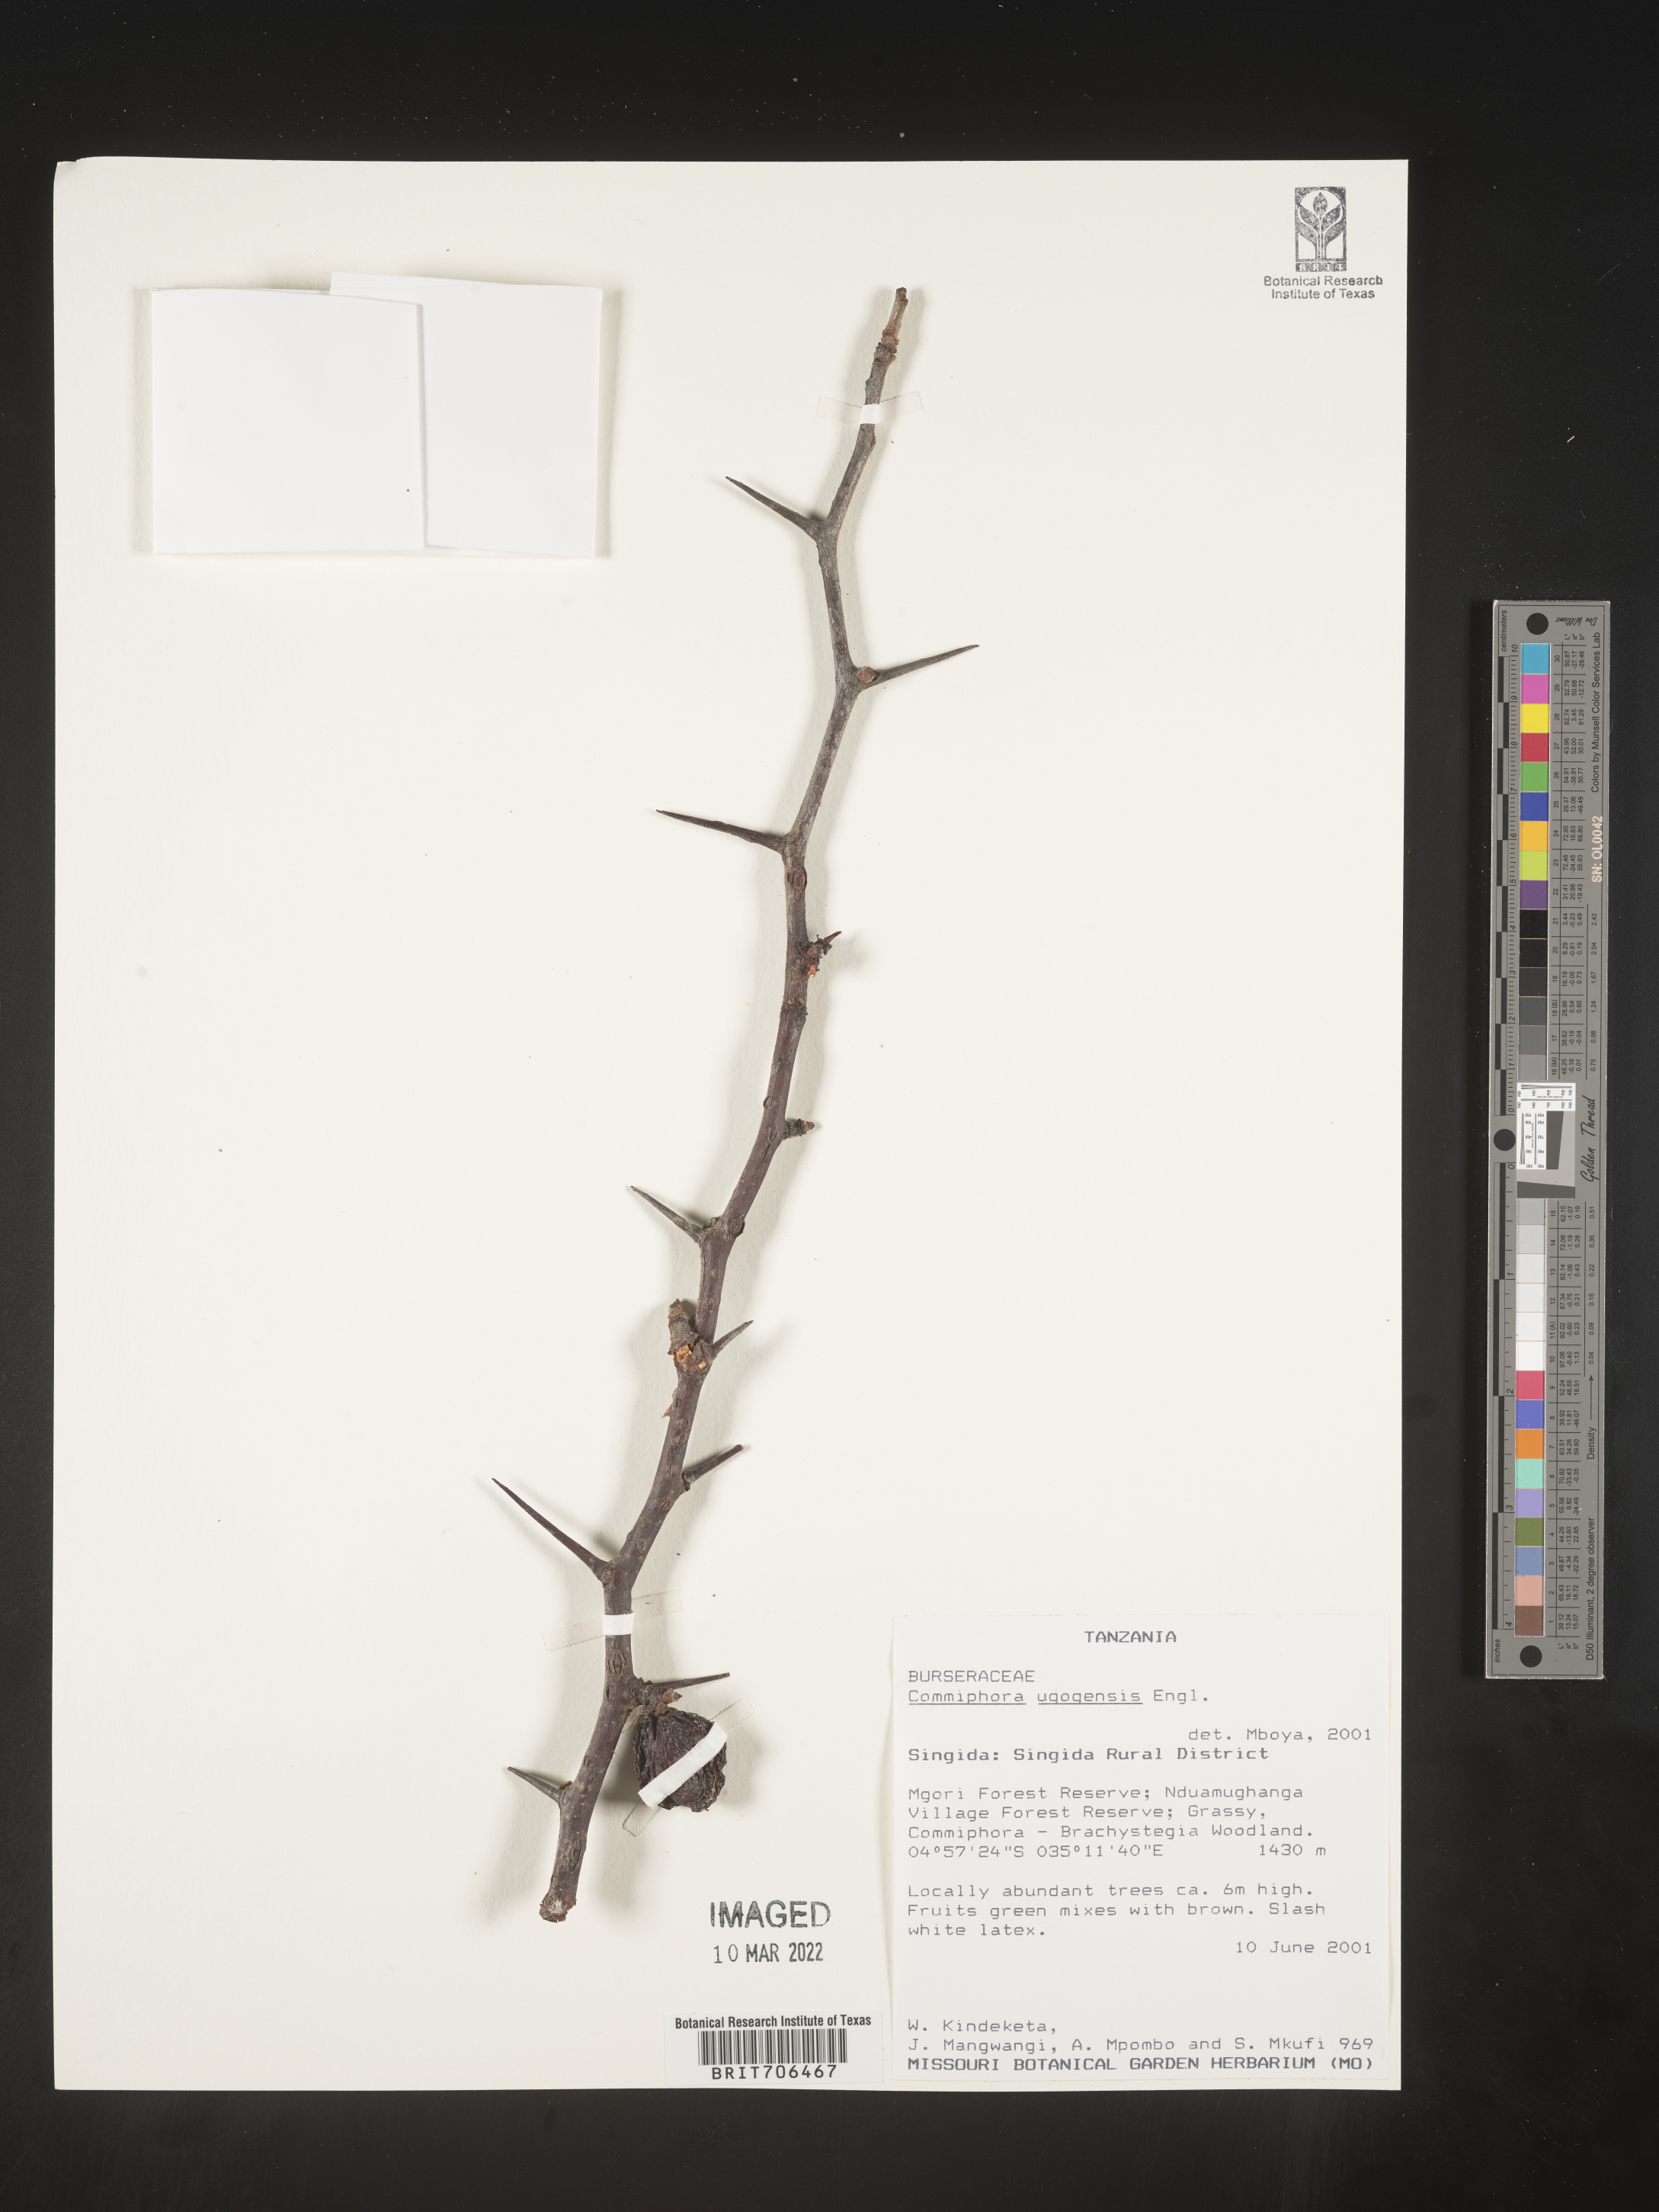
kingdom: Plantae
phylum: Tracheophyta
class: Magnoliopsida
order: Sapindales
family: Burseraceae
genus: Commiphora
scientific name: Commiphora
